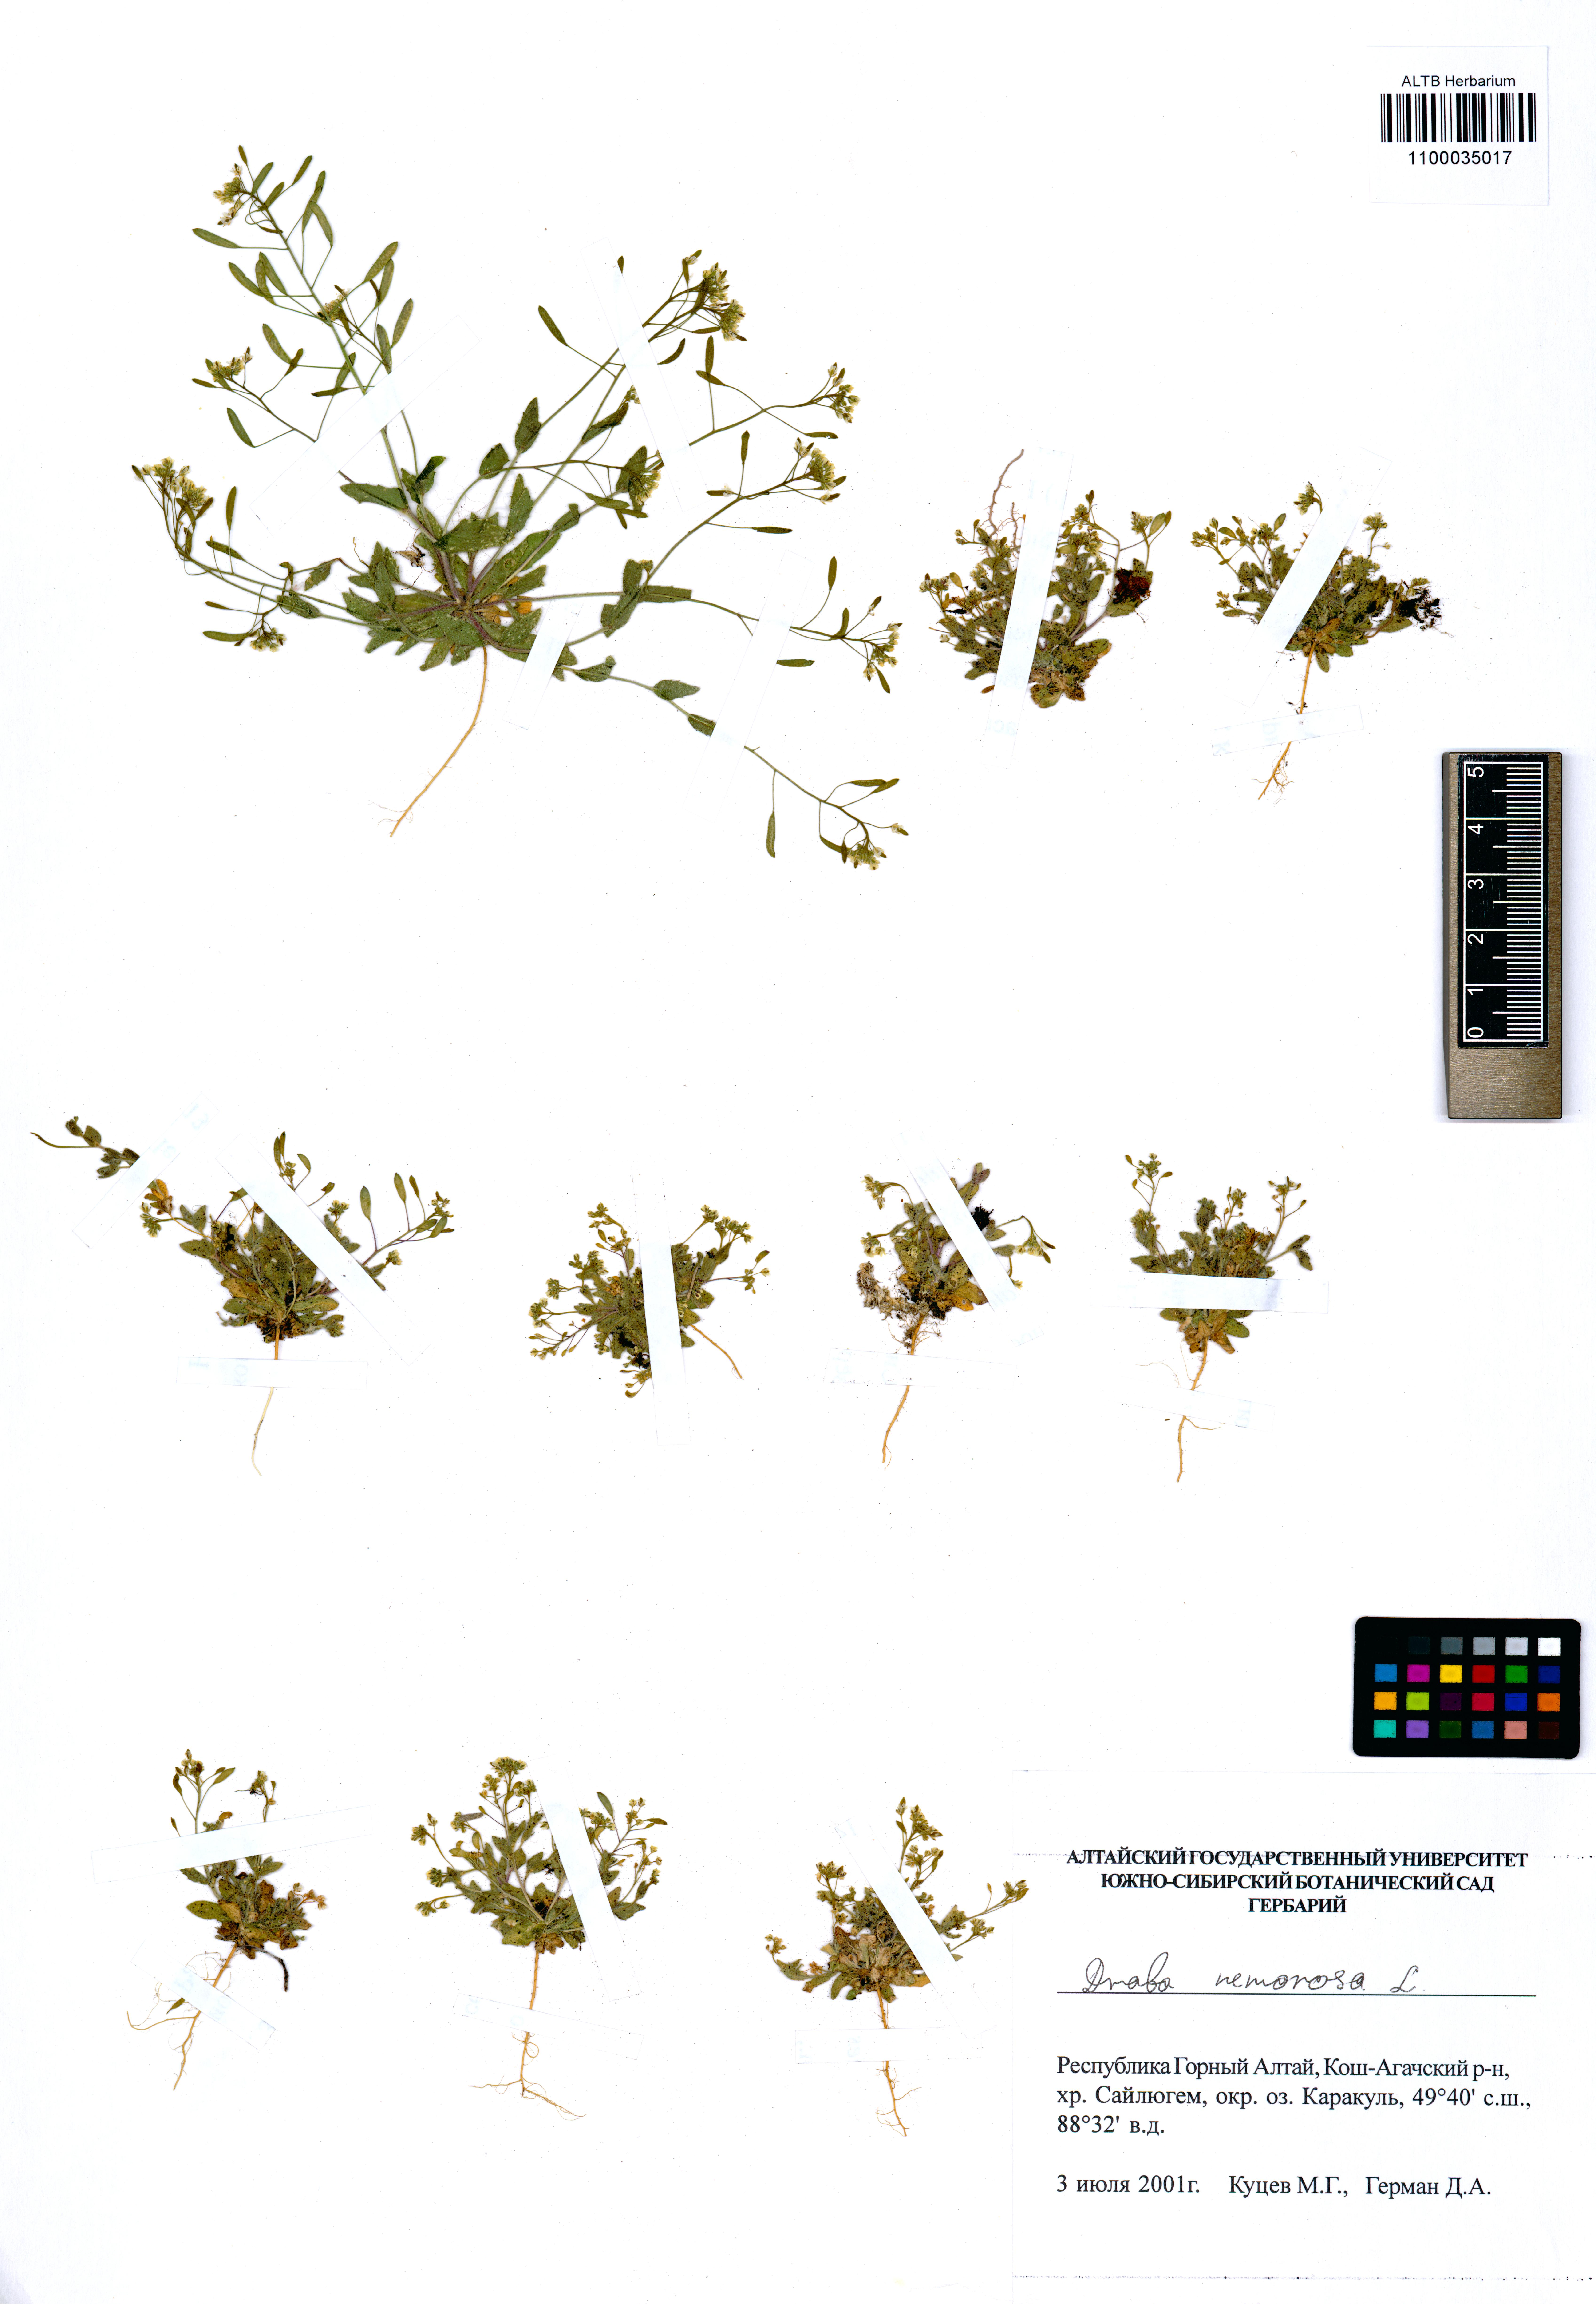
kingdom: Plantae
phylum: Tracheophyta
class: Magnoliopsida
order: Brassicales
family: Brassicaceae
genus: Draba
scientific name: Draba nemorosa
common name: Wood whitlow-grass
